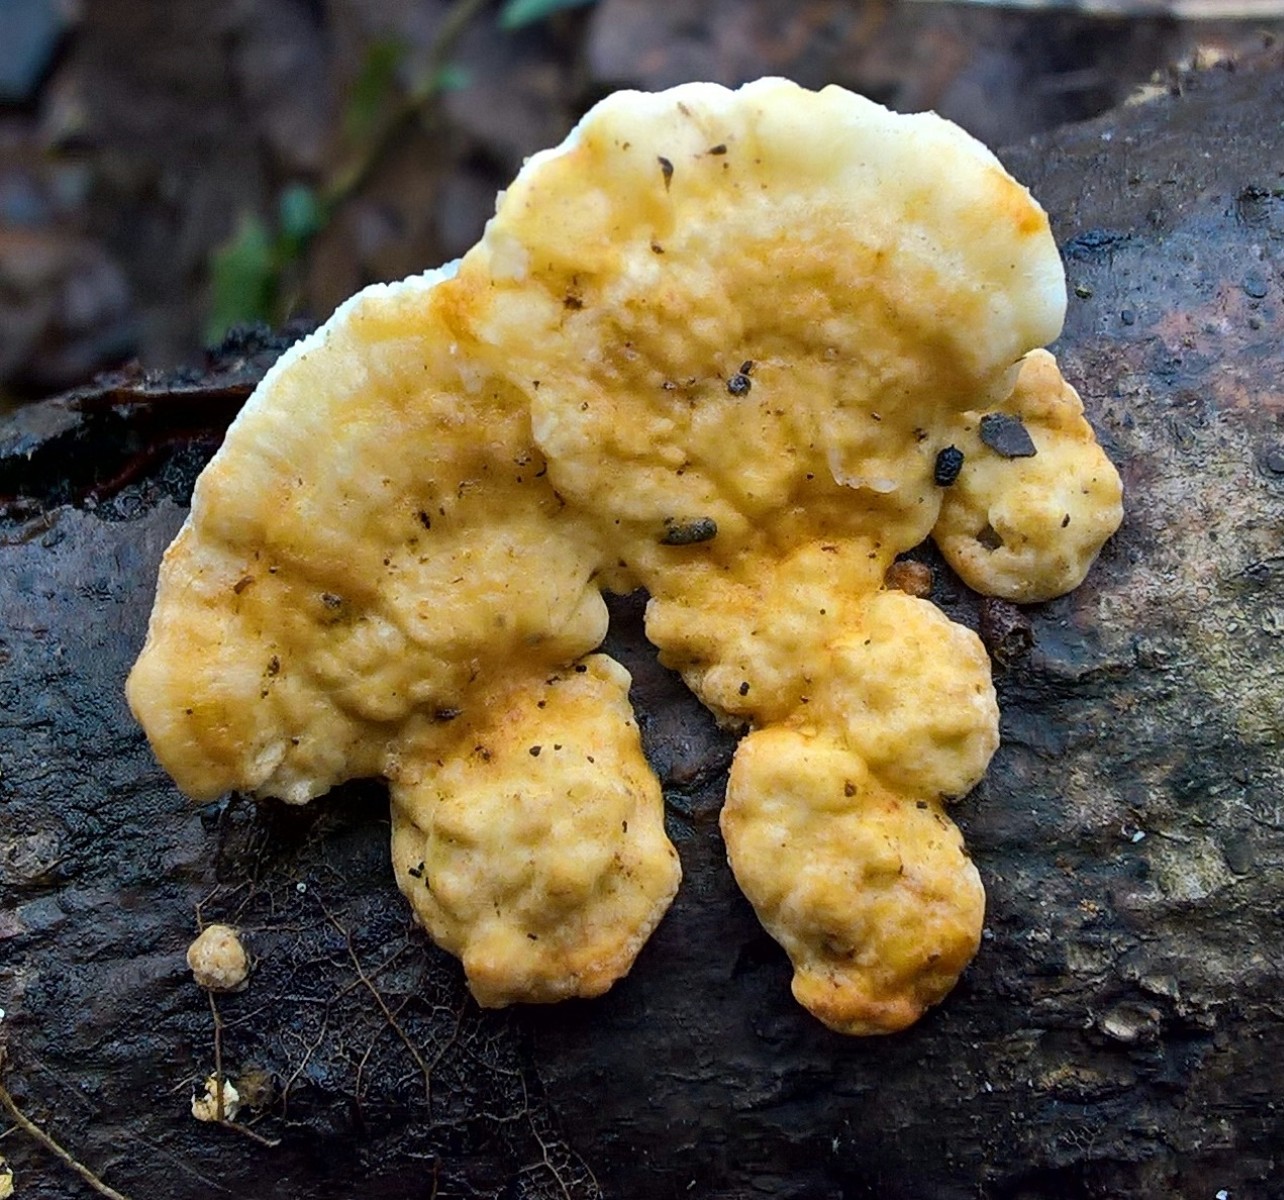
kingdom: Fungi
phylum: Basidiomycota
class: Agaricomycetes
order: Polyporales
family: Polyporaceae
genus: Trametes
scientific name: Trametes ochracea
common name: bæltet læderporesvamp
